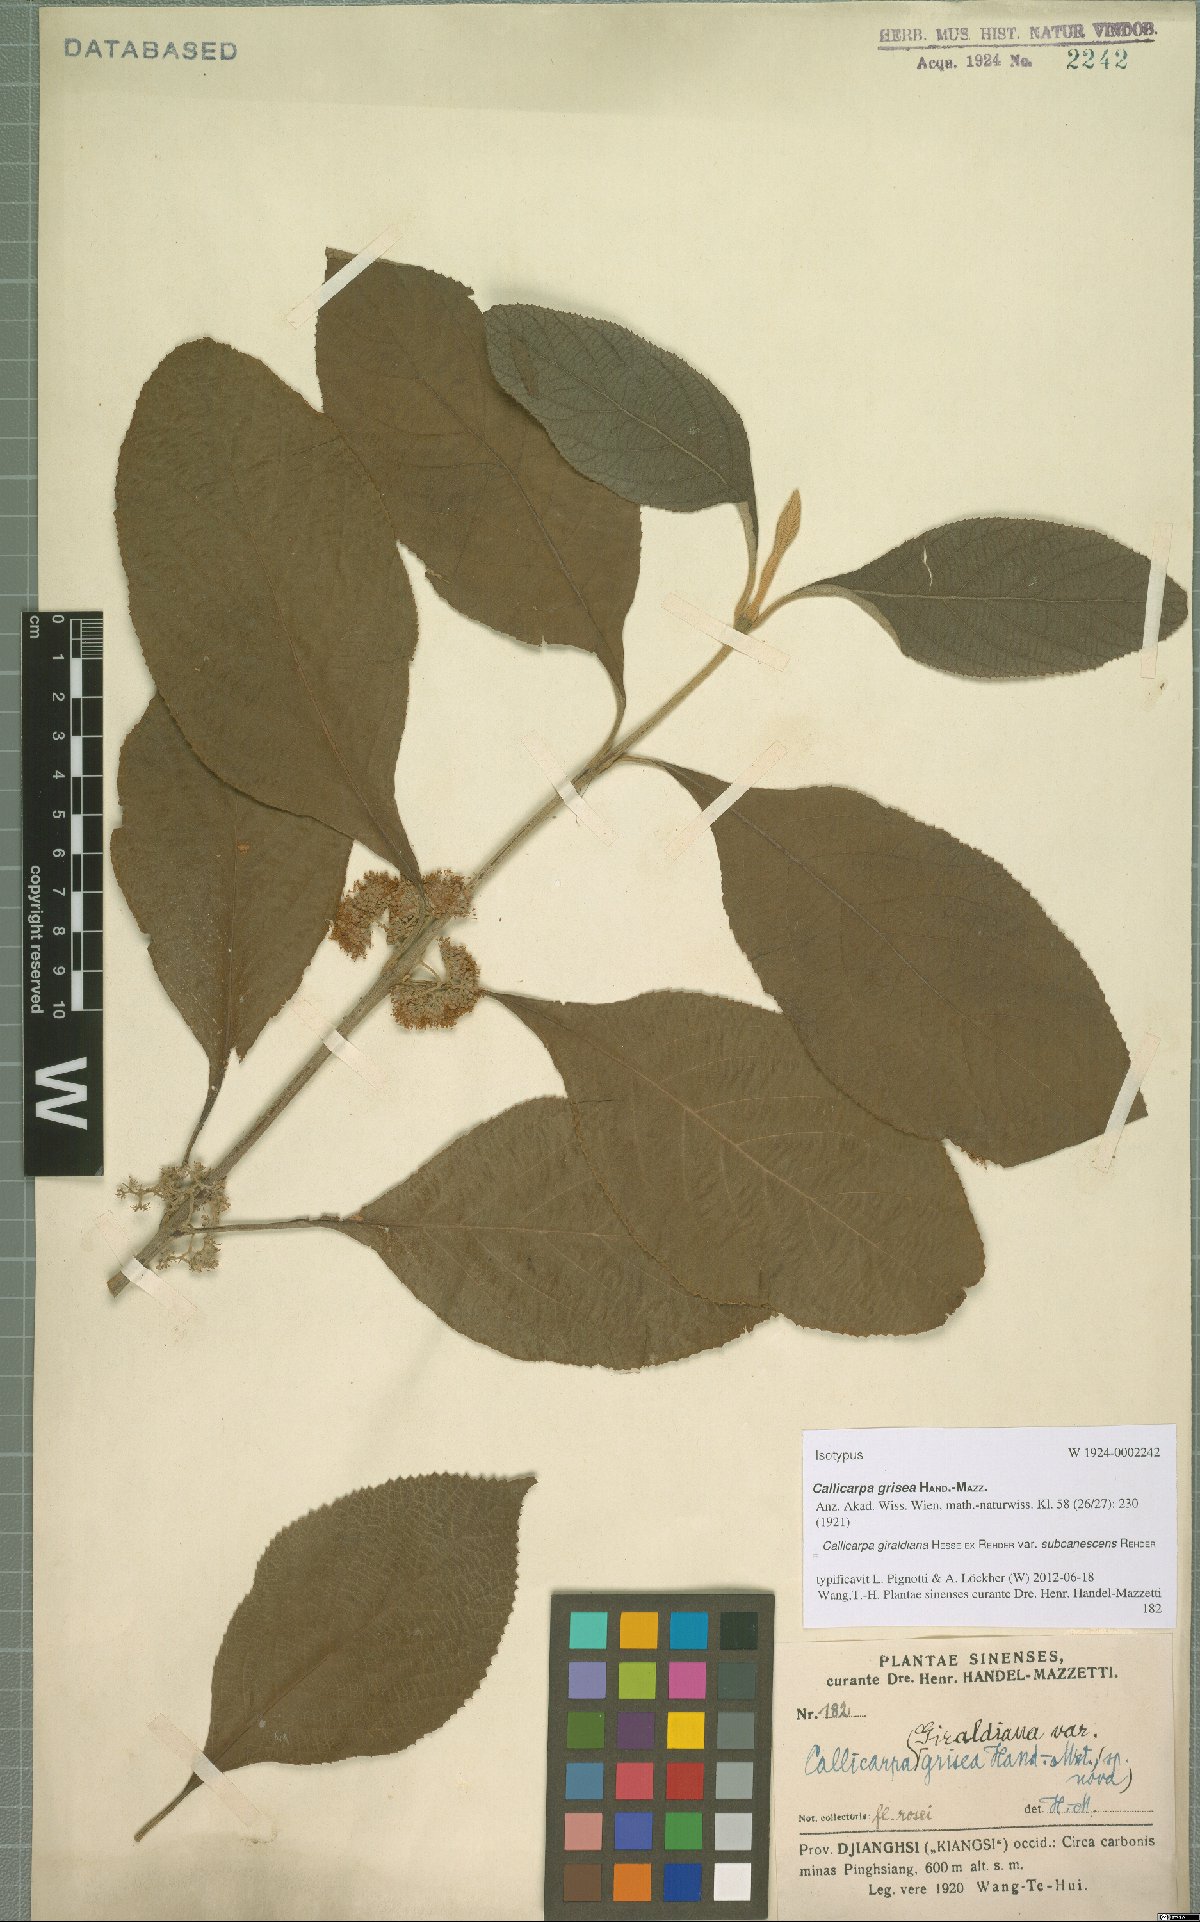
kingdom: Plantae
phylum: Tracheophyta
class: Magnoliopsida
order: Lamiales
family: Lamiaceae
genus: Callicarpa
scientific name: Callicarpa giraldii
